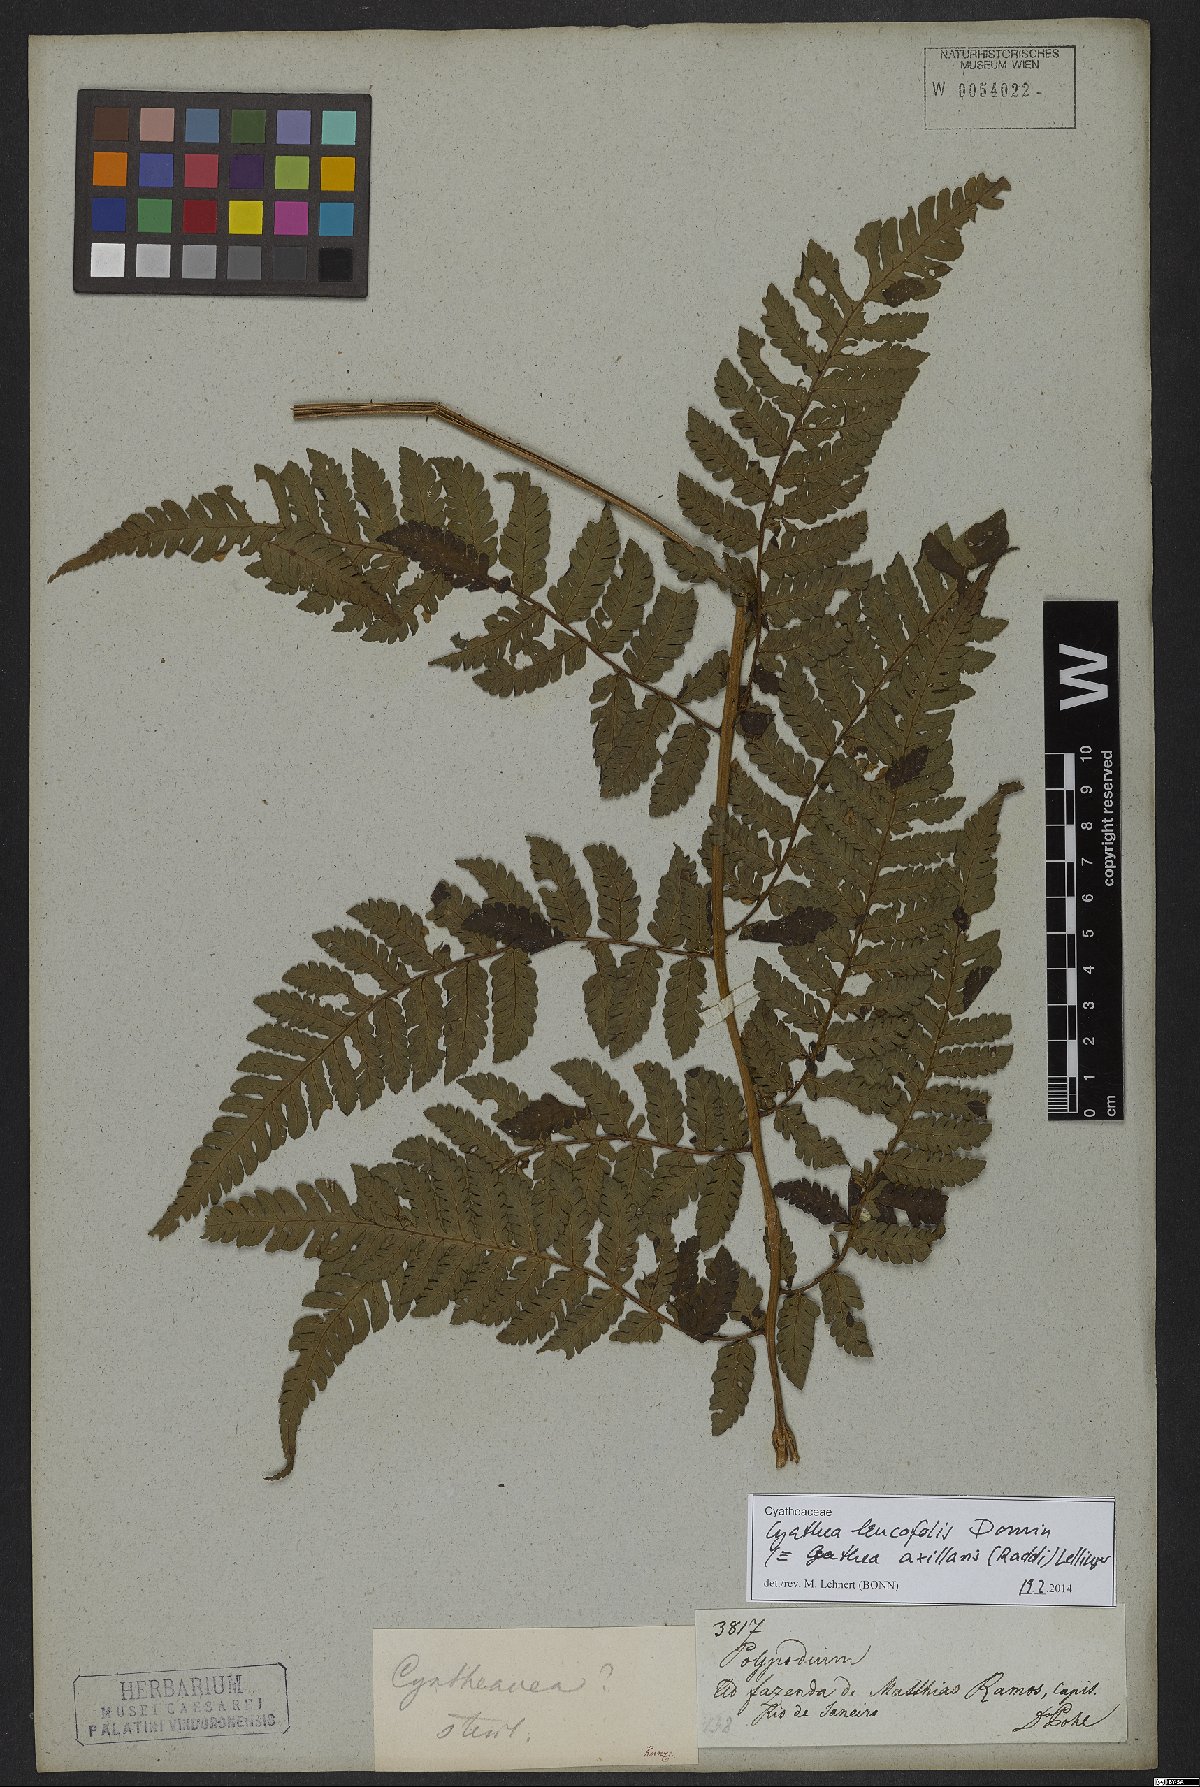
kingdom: Plantae
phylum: Tracheophyta
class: Polypodiopsida
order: Cyatheales
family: Cyatheaceae
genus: Cyathea
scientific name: Cyathea leucofolis
